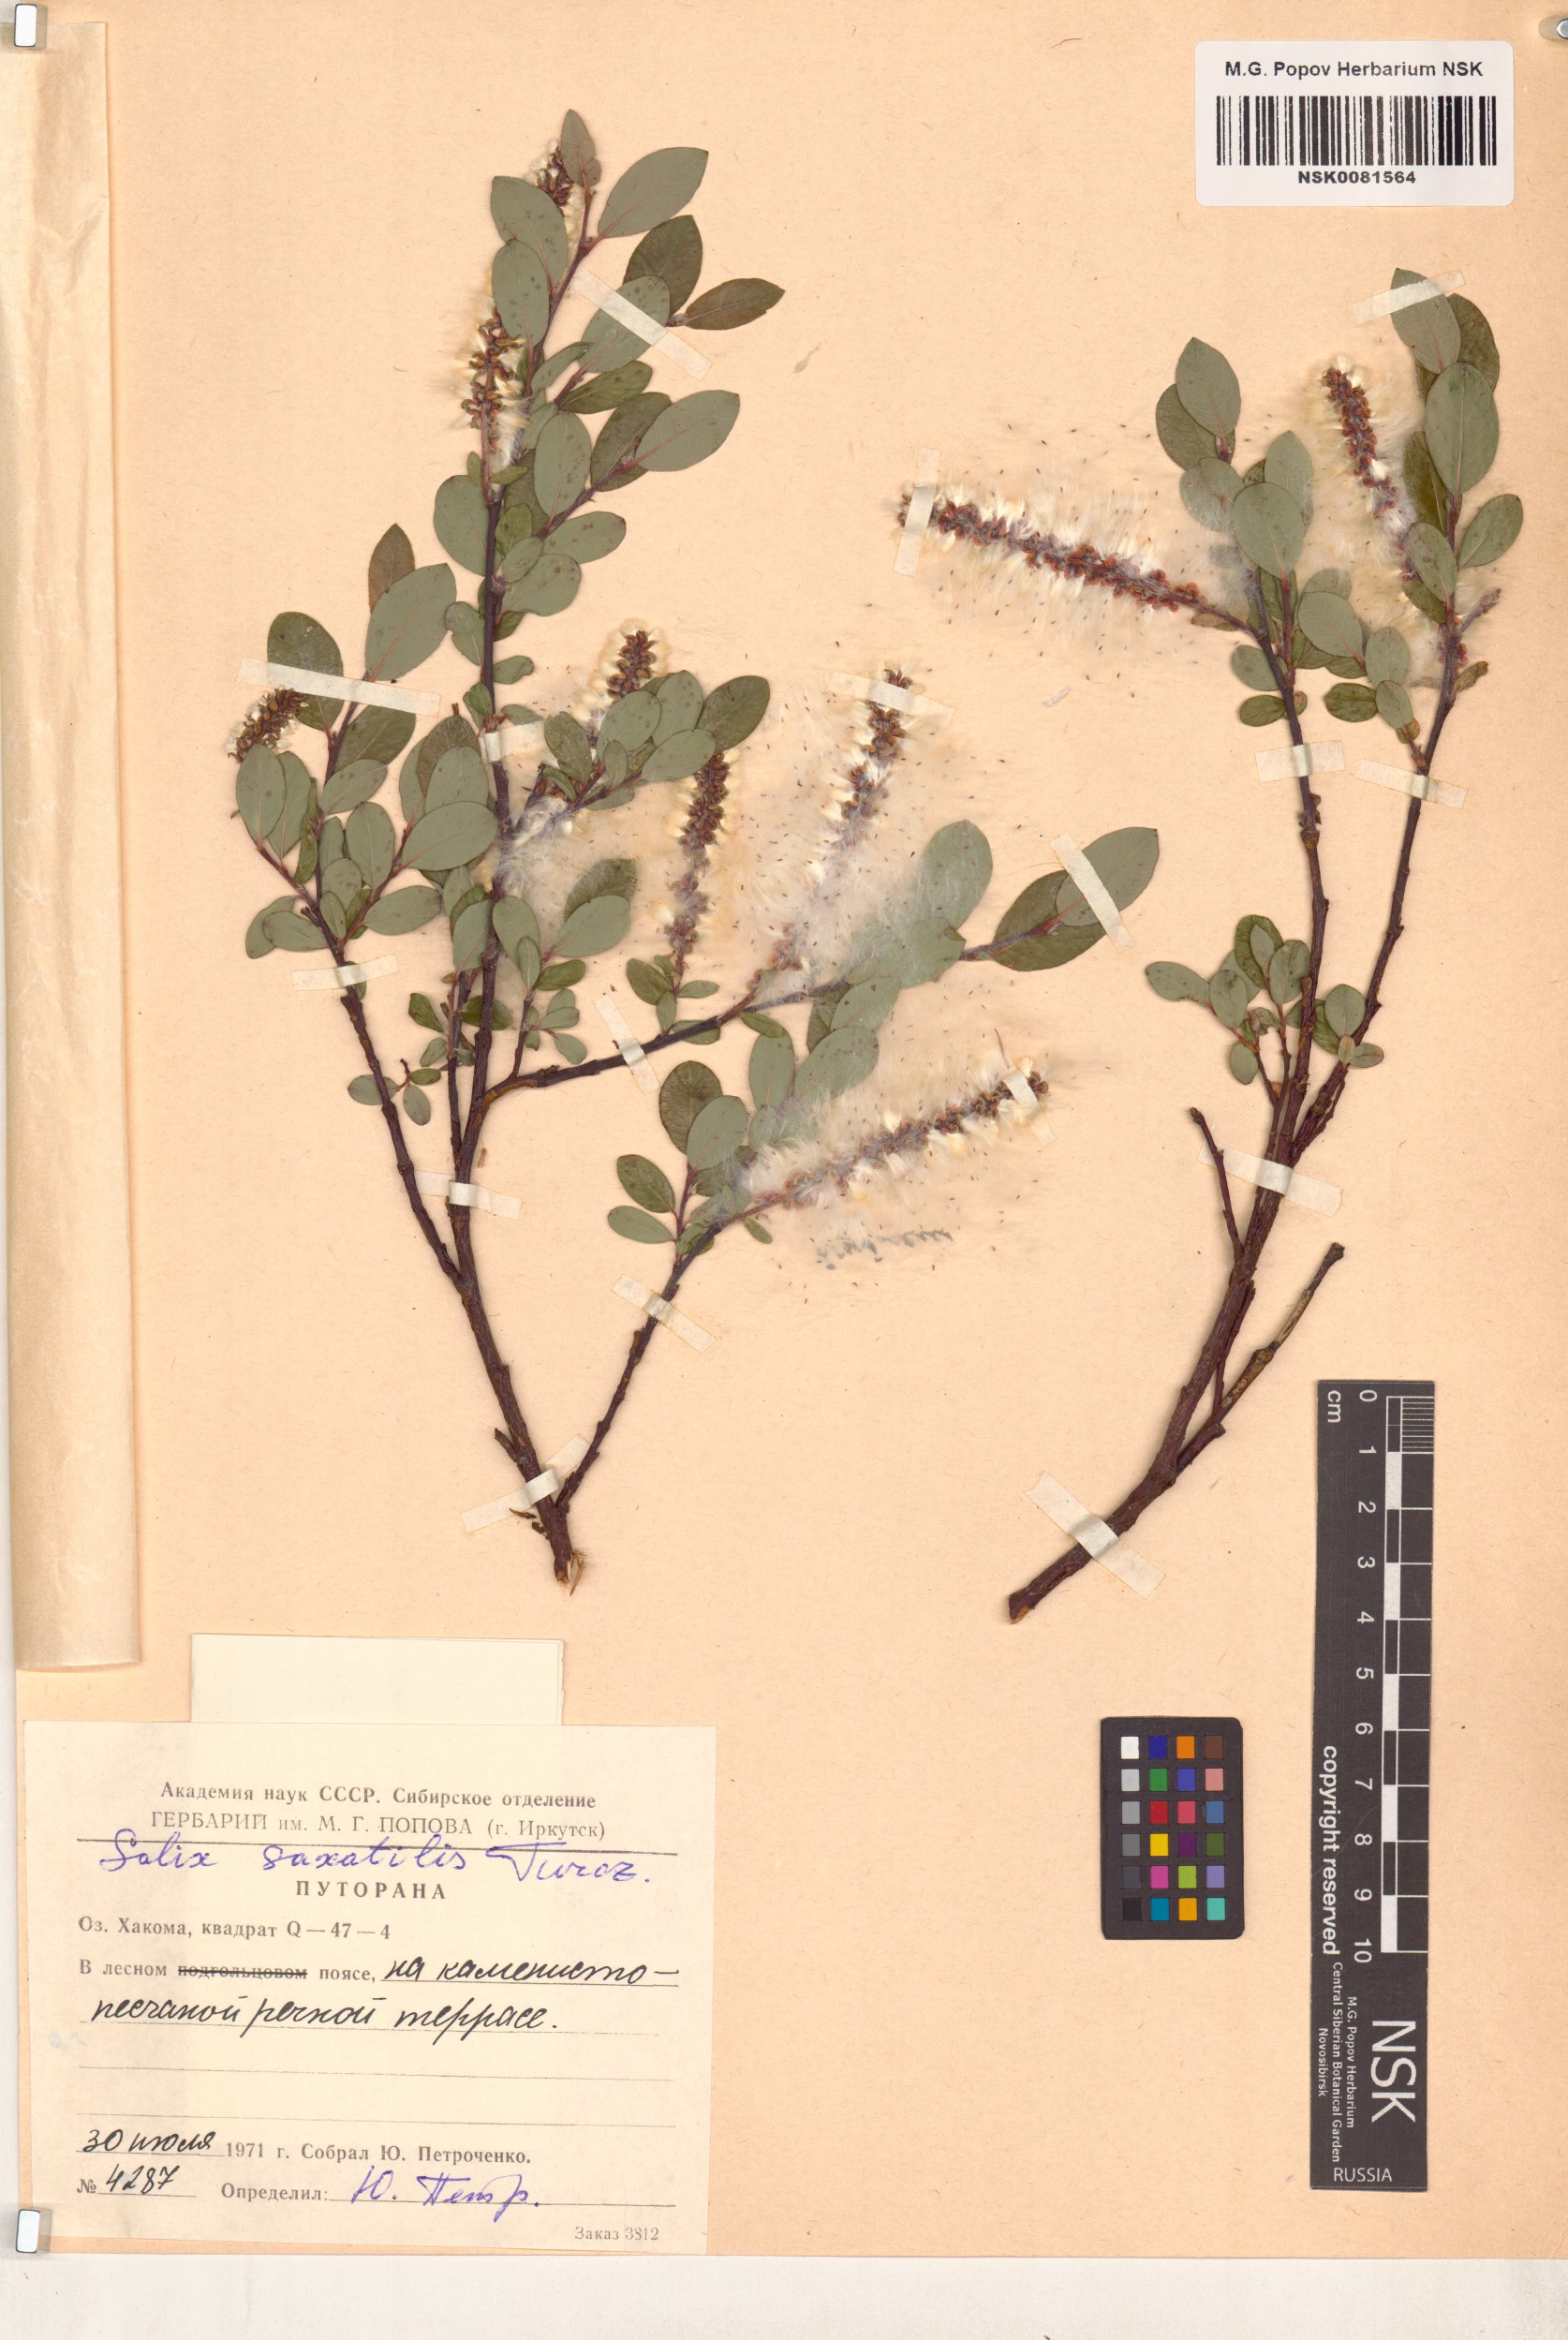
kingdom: Plantae
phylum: Tracheophyta
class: Magnoliopsida
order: Malpighiales
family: Salicaceae
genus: Salix
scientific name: Salix saxatilis
